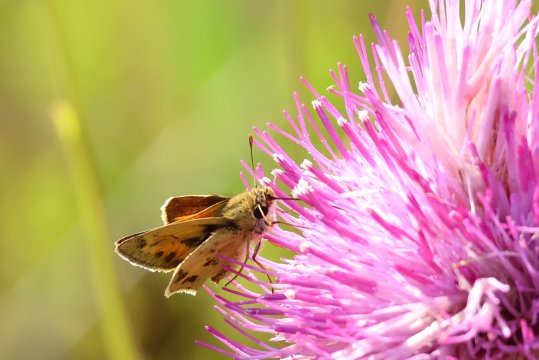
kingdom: Animalia
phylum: Arthropoda
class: Insecta
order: Lepidoptera
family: Hesperiidae
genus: Polites
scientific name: Polites vibex
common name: Whirlabout
